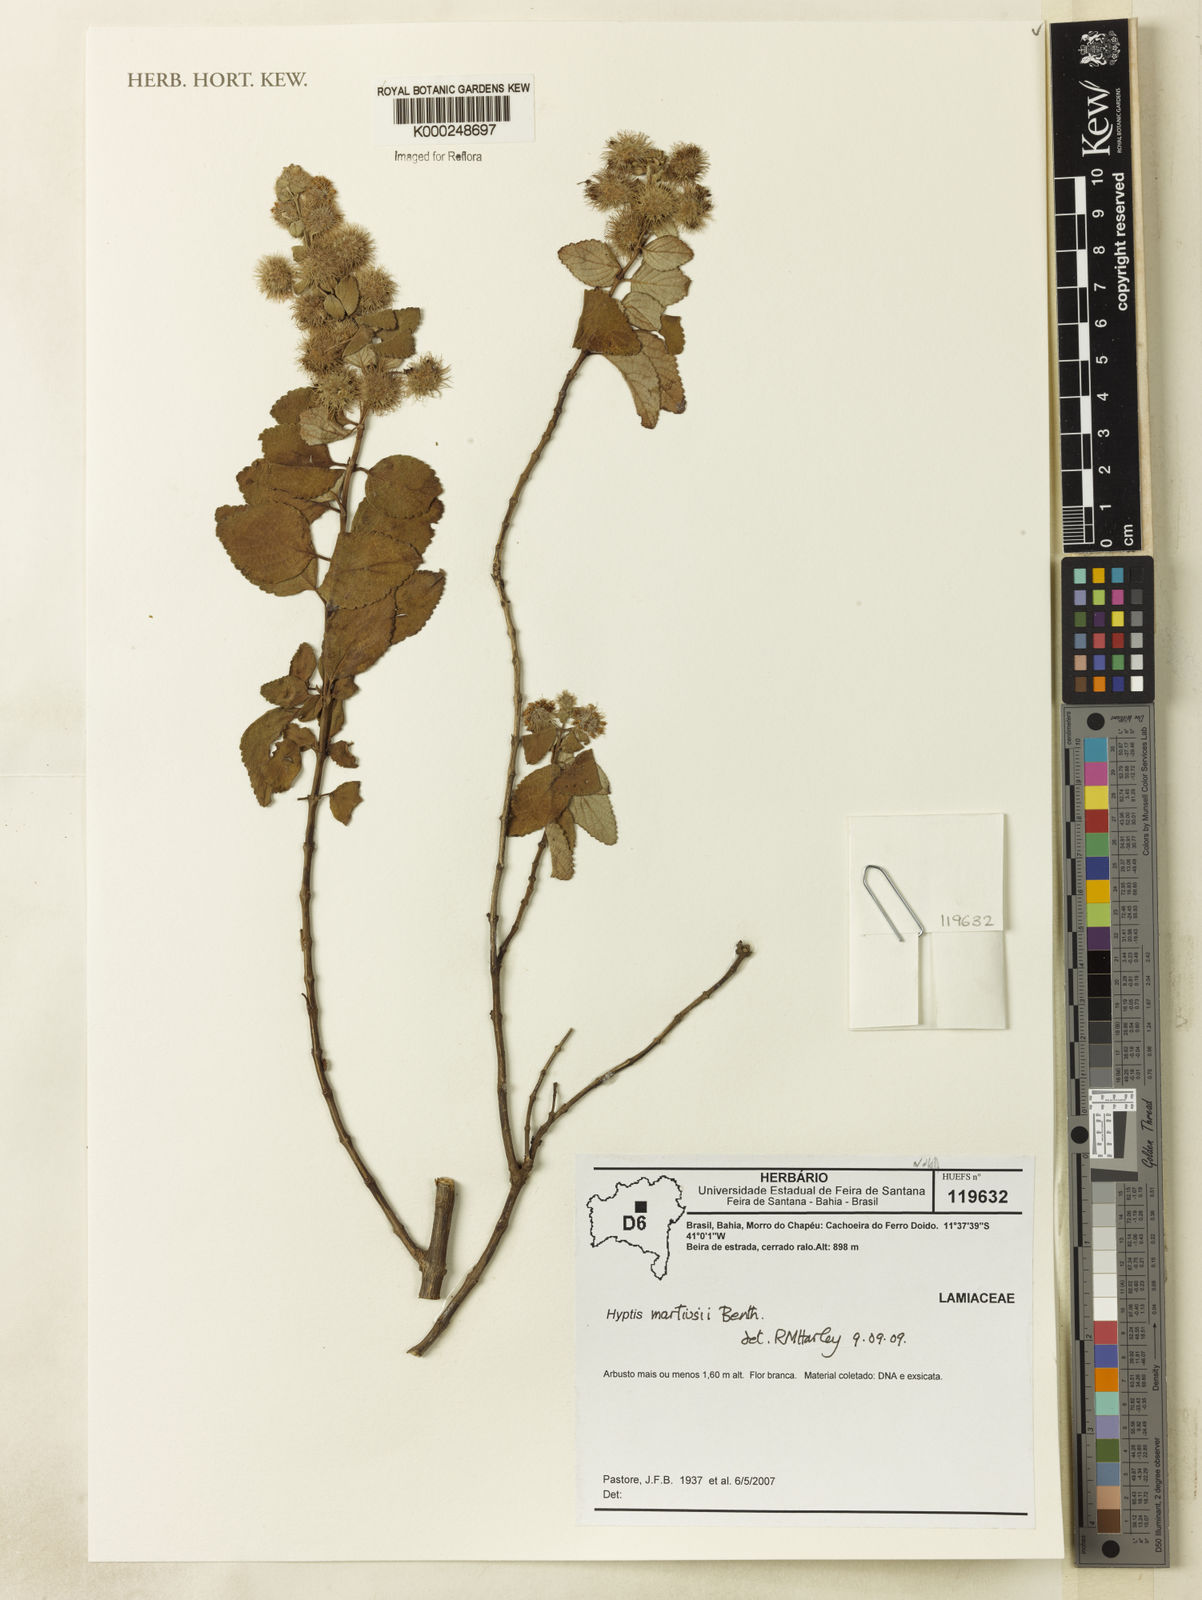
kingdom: Plantae
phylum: Tracheophyta
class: Magnoliopsida
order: Lamiales
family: Lamiaceae
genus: Medusantha
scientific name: Medusantha martiusii
